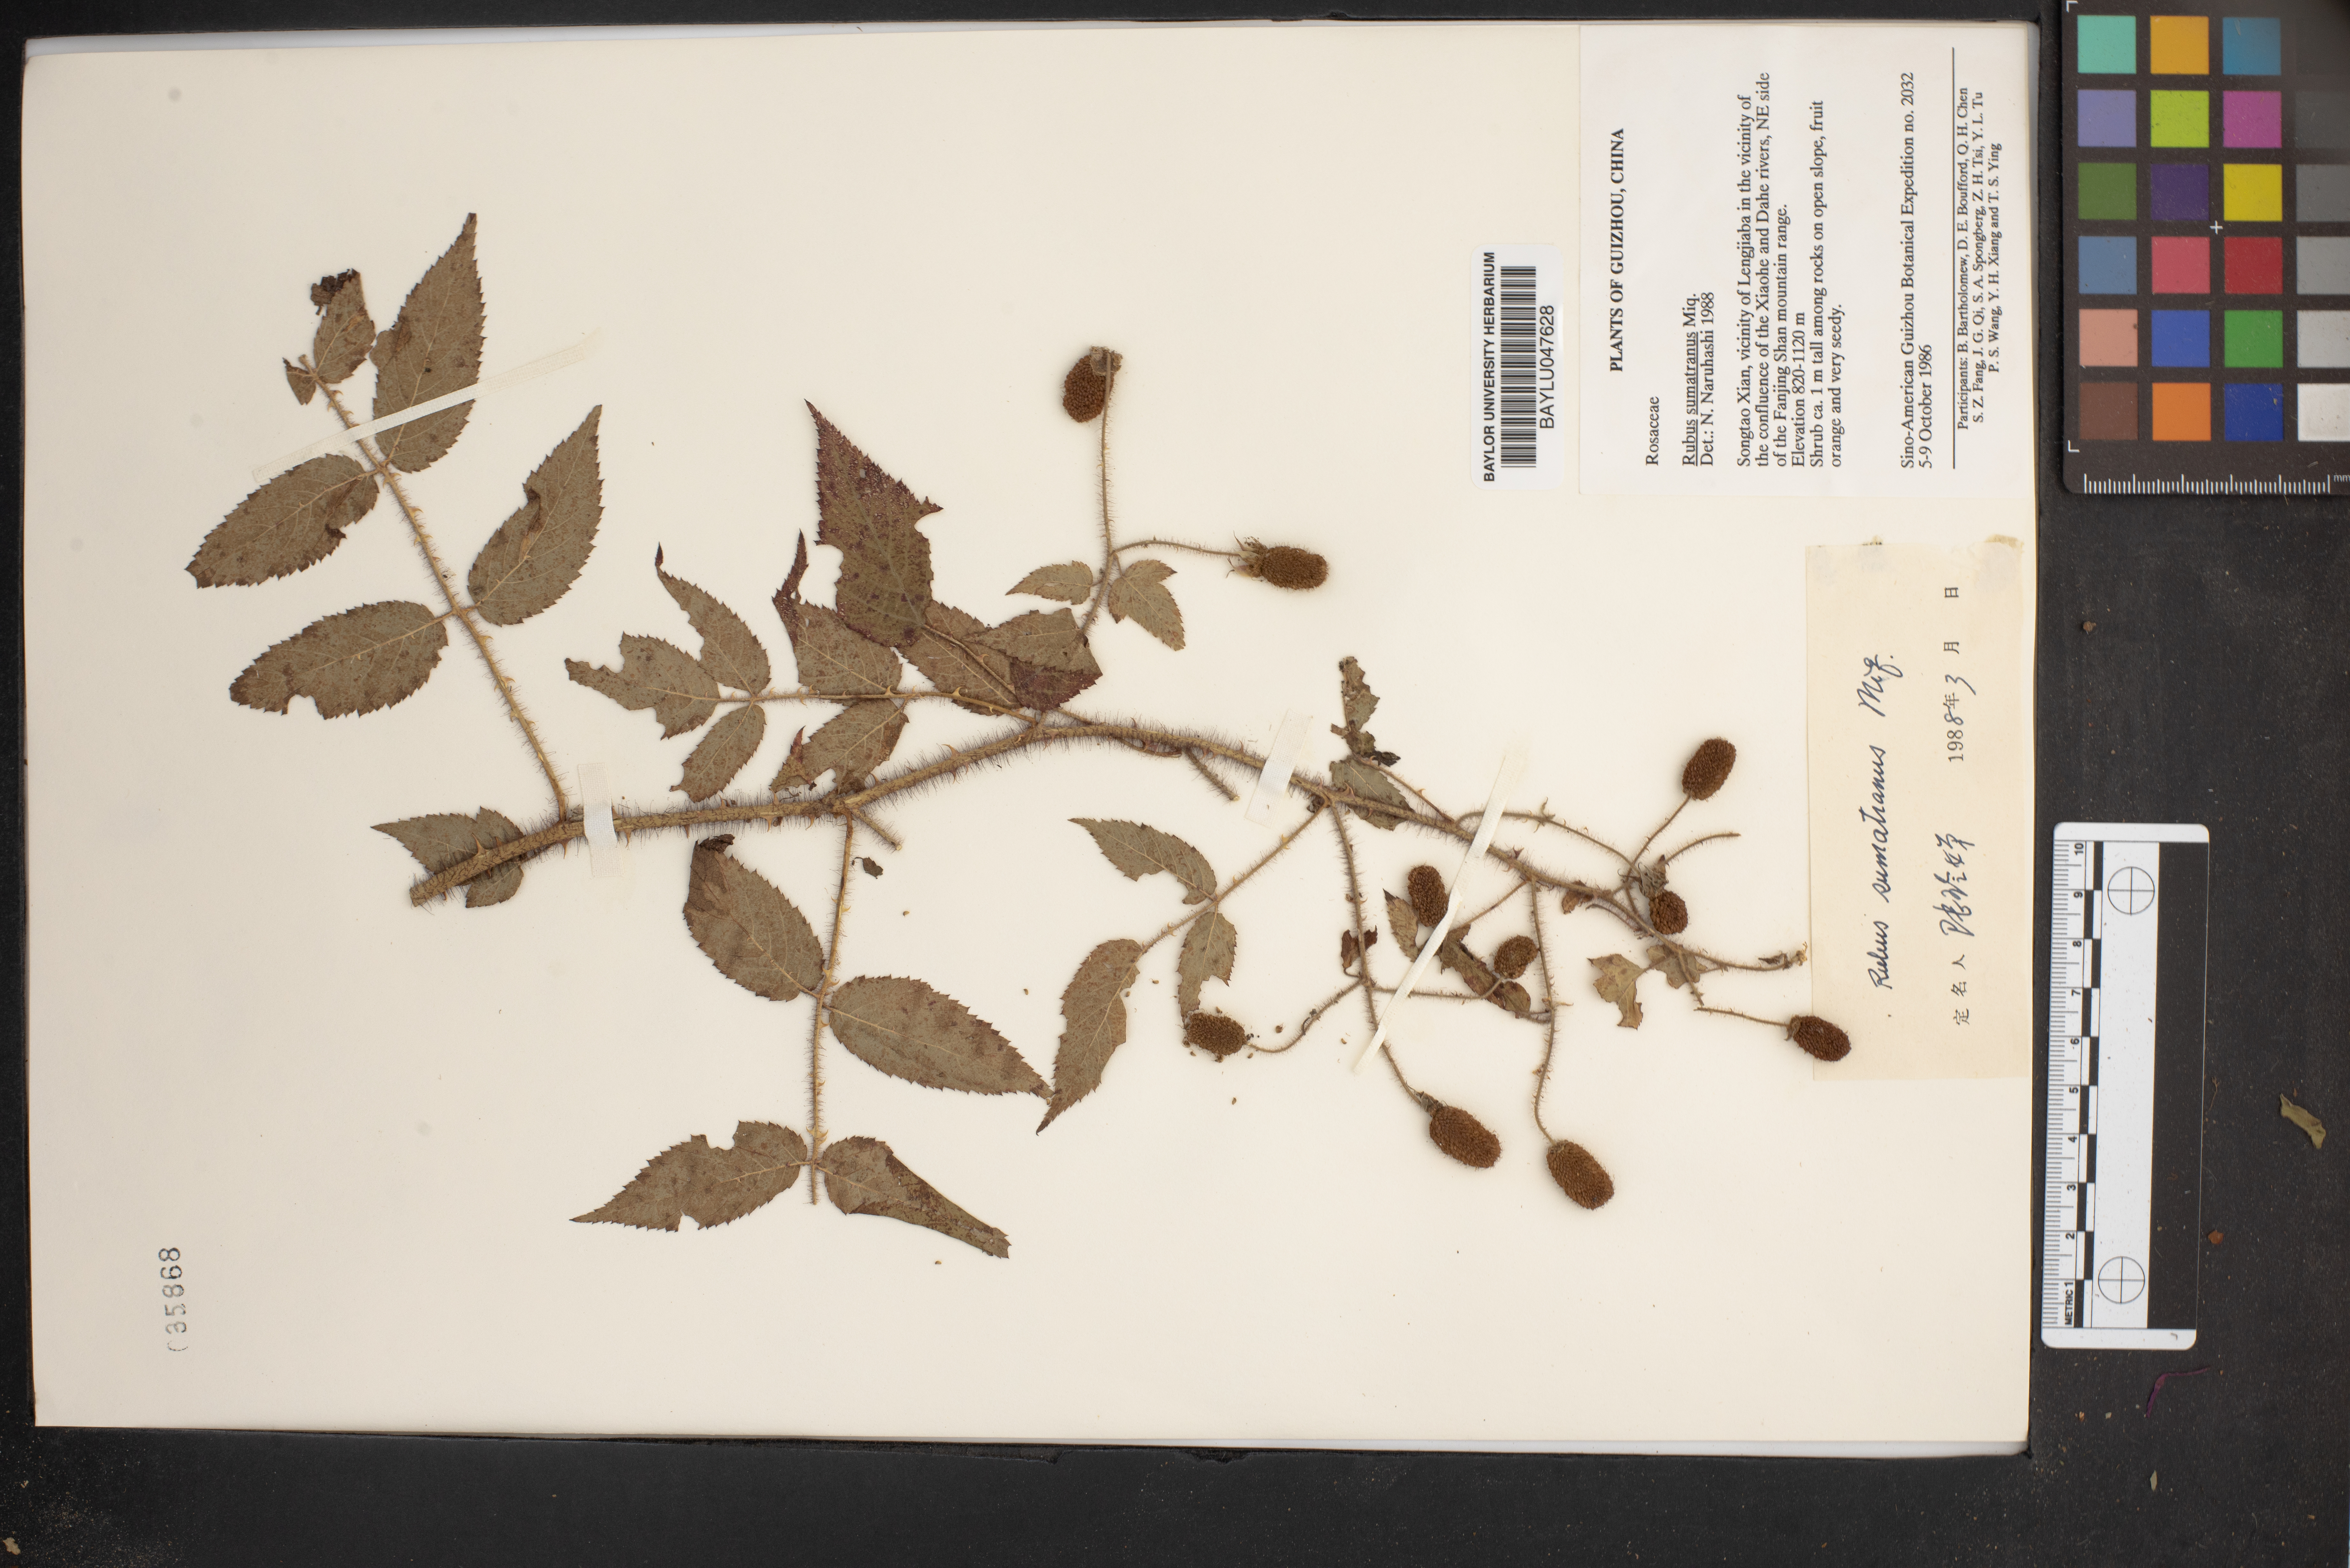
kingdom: Plantae
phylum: Tracheophyta
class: Magnoliopsida
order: Rosales
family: Rosaceae
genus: Rubus
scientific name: Rubus sumatranus
